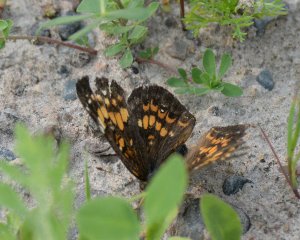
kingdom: Animalia
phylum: Arthropoda
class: Insecta
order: Lepidoptera
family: Nymphalidae
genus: Chlosyne
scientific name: Chlosyne harrisii
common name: Harris's Checkerspot
